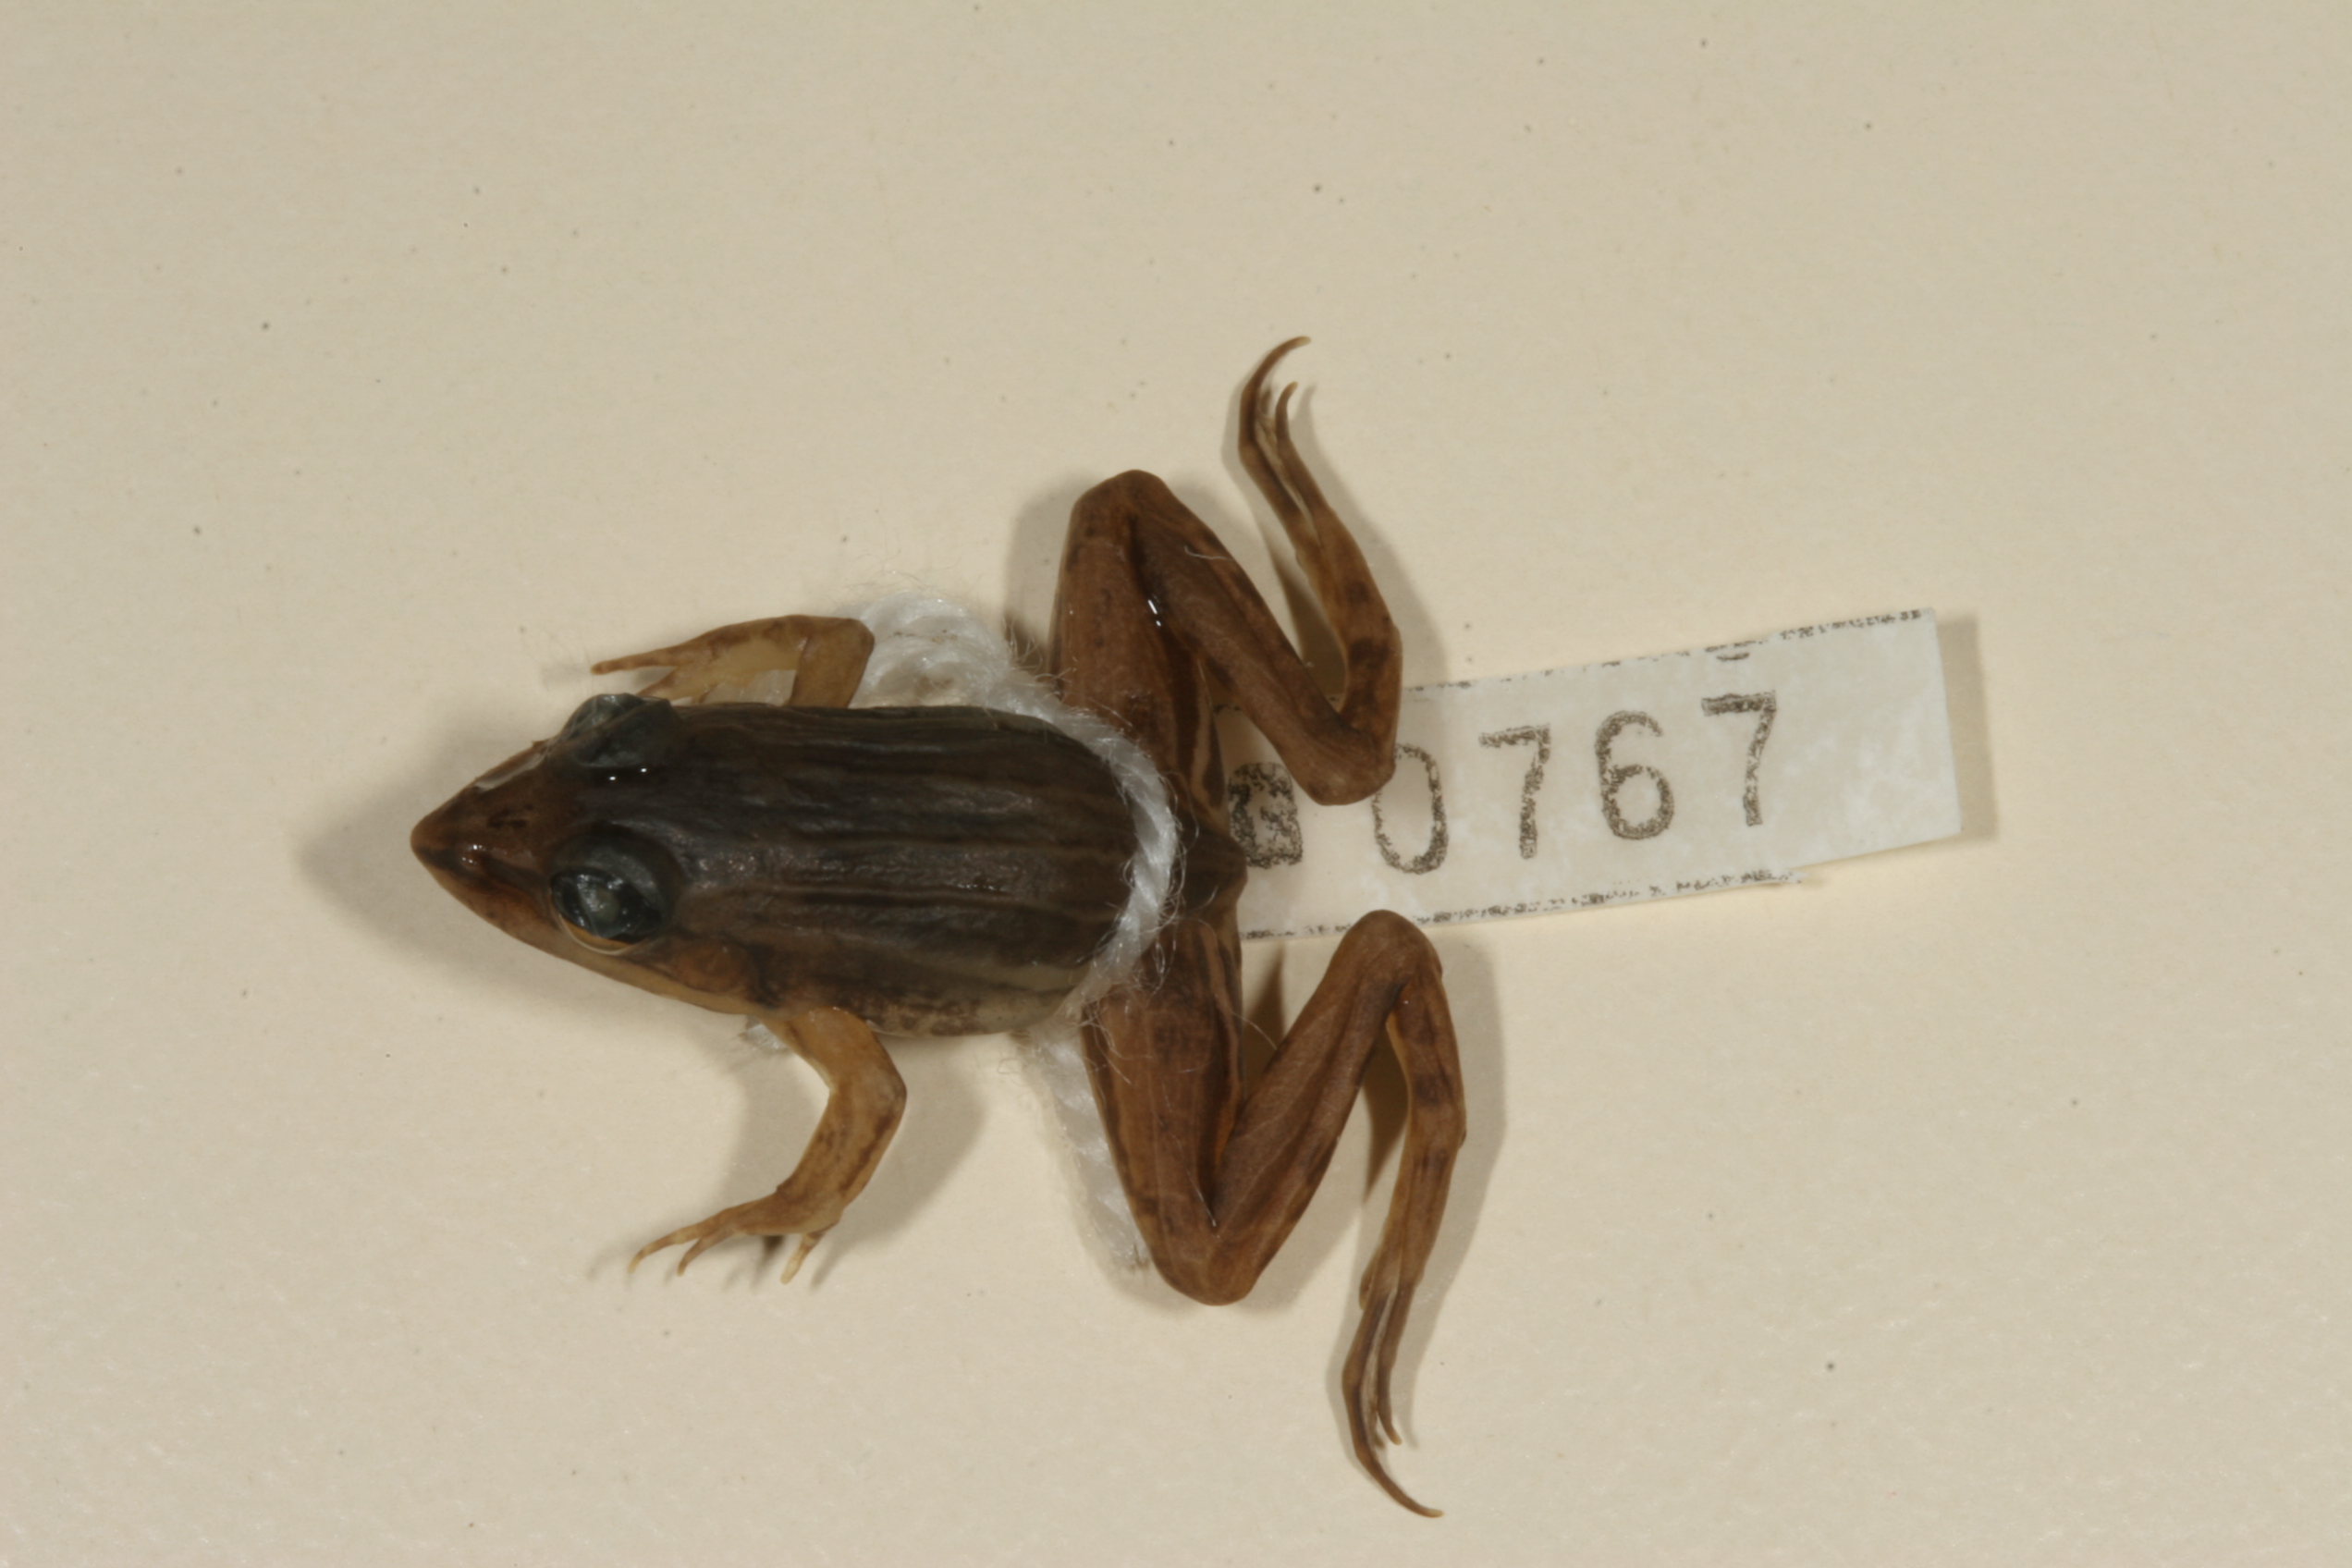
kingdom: Animalia
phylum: Chordata
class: Amphibia
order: Anura
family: Ptychadenidae
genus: Ptychadena
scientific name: Ptychadena subpunctata
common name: Bocage's grassland frog
